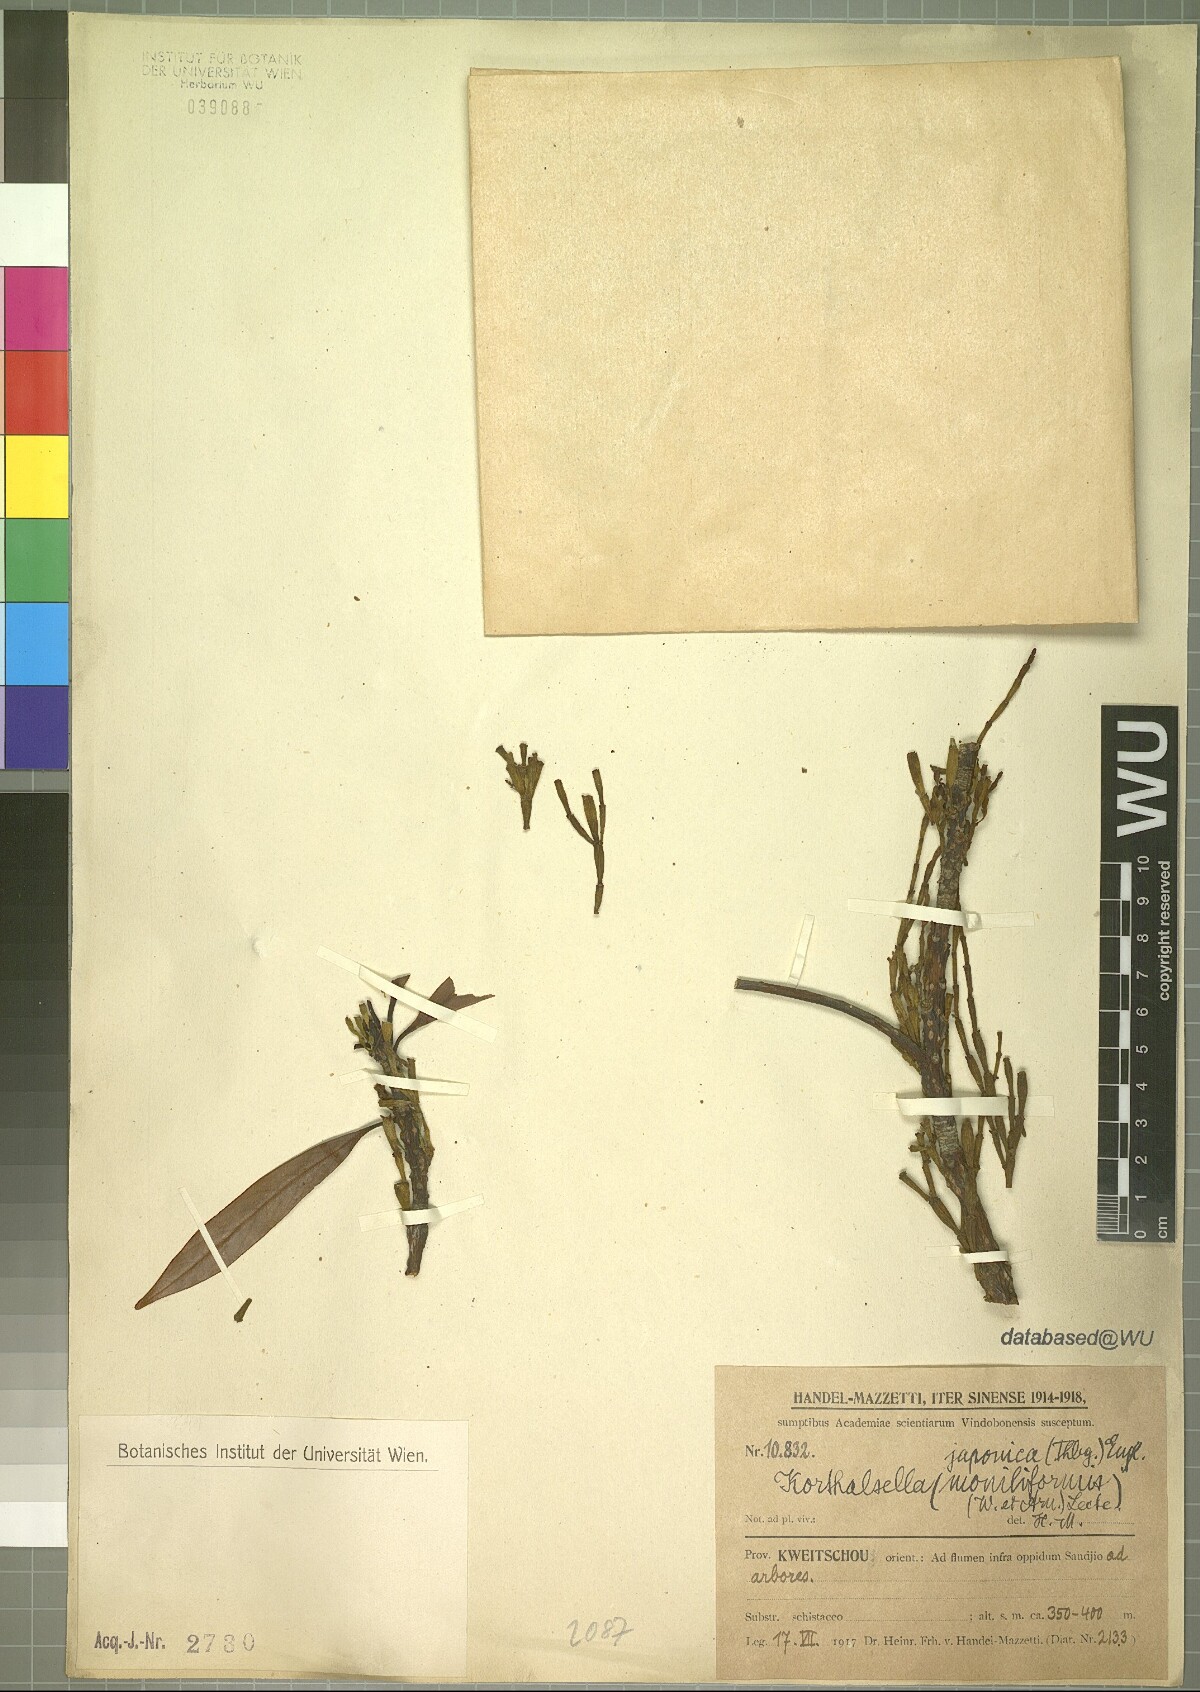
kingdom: Plantae
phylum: Tracheophyta
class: Magnoliopsida
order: Santalales
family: Viscaceae
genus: Korthalsella
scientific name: Korthalsella japonica
